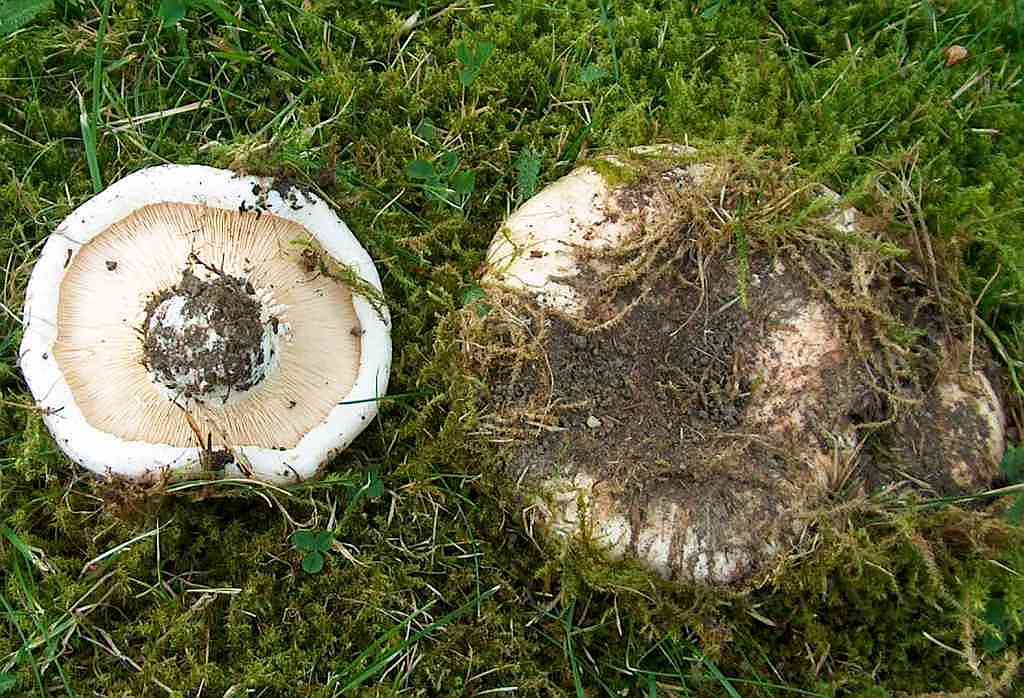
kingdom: Fungi
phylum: Basidiomycota
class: Agaricomycetes
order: Russulales
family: Russulaceae
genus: Lactarius
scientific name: Lactarius controversus
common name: rosabladet mælkehat
